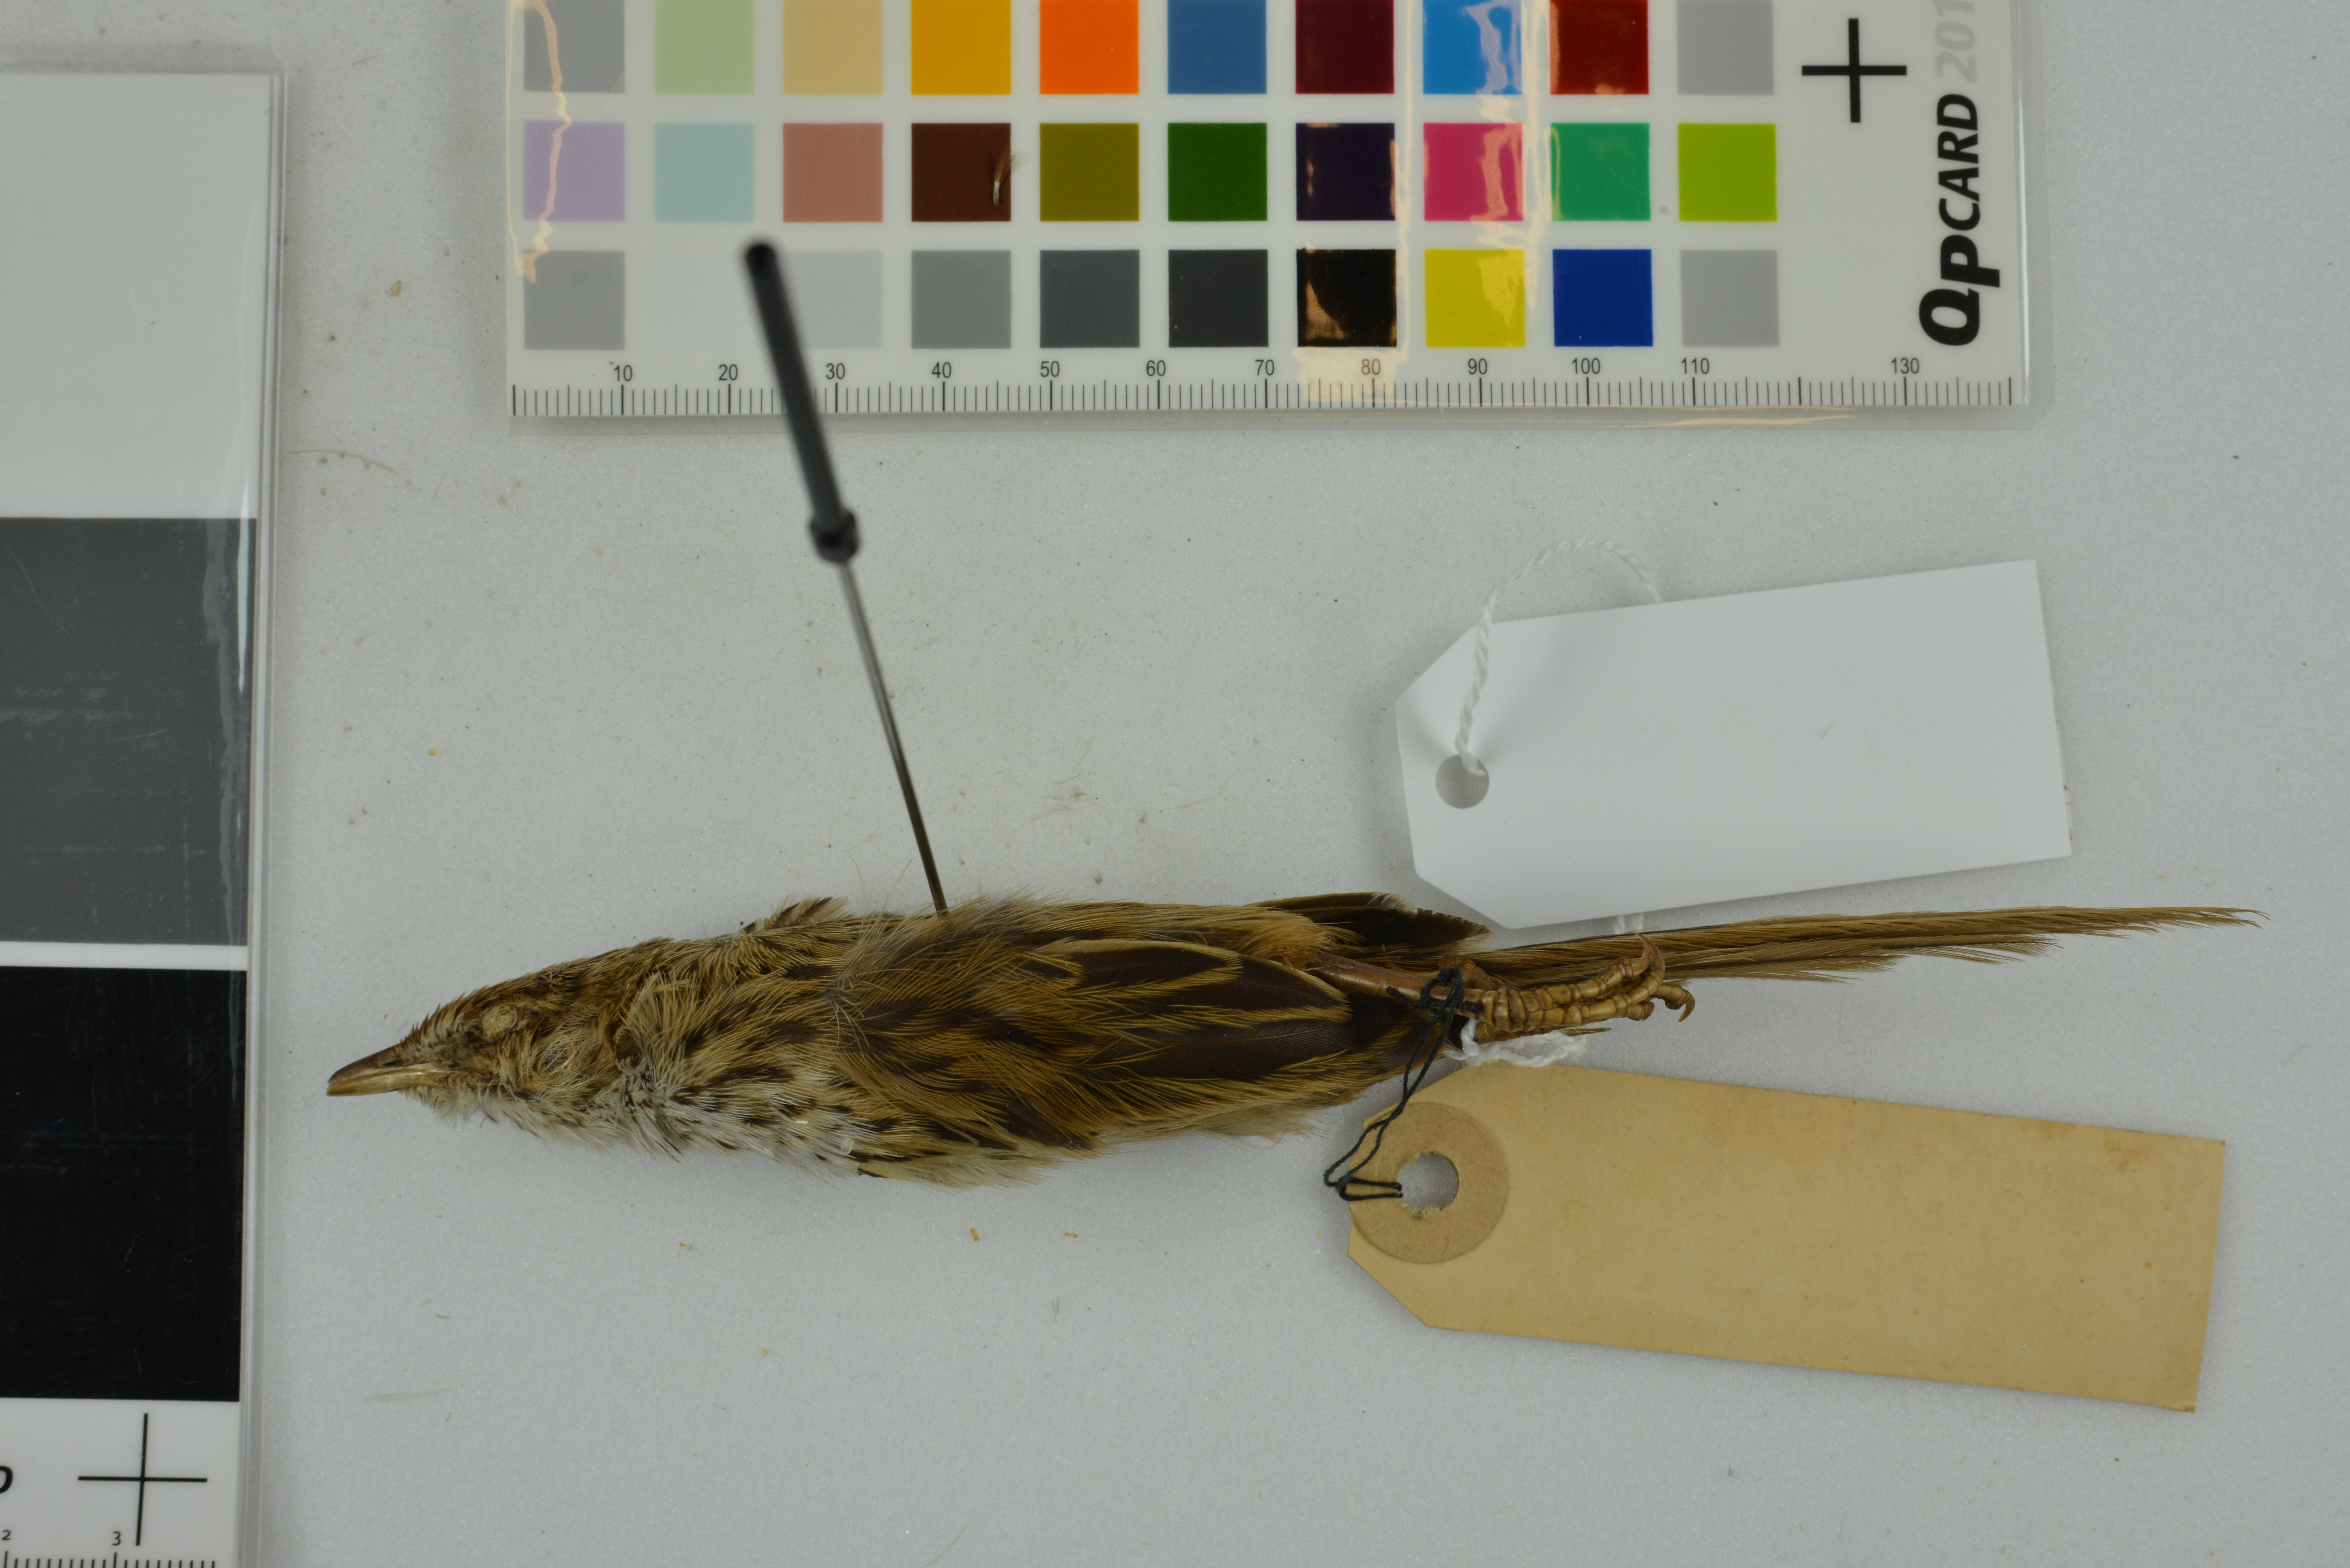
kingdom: Animalia
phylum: Chordata
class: Aves
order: Passeriformes
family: Locustellidae
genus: Poodytes
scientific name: Poodytes punctatus
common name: New zealand fernbird
